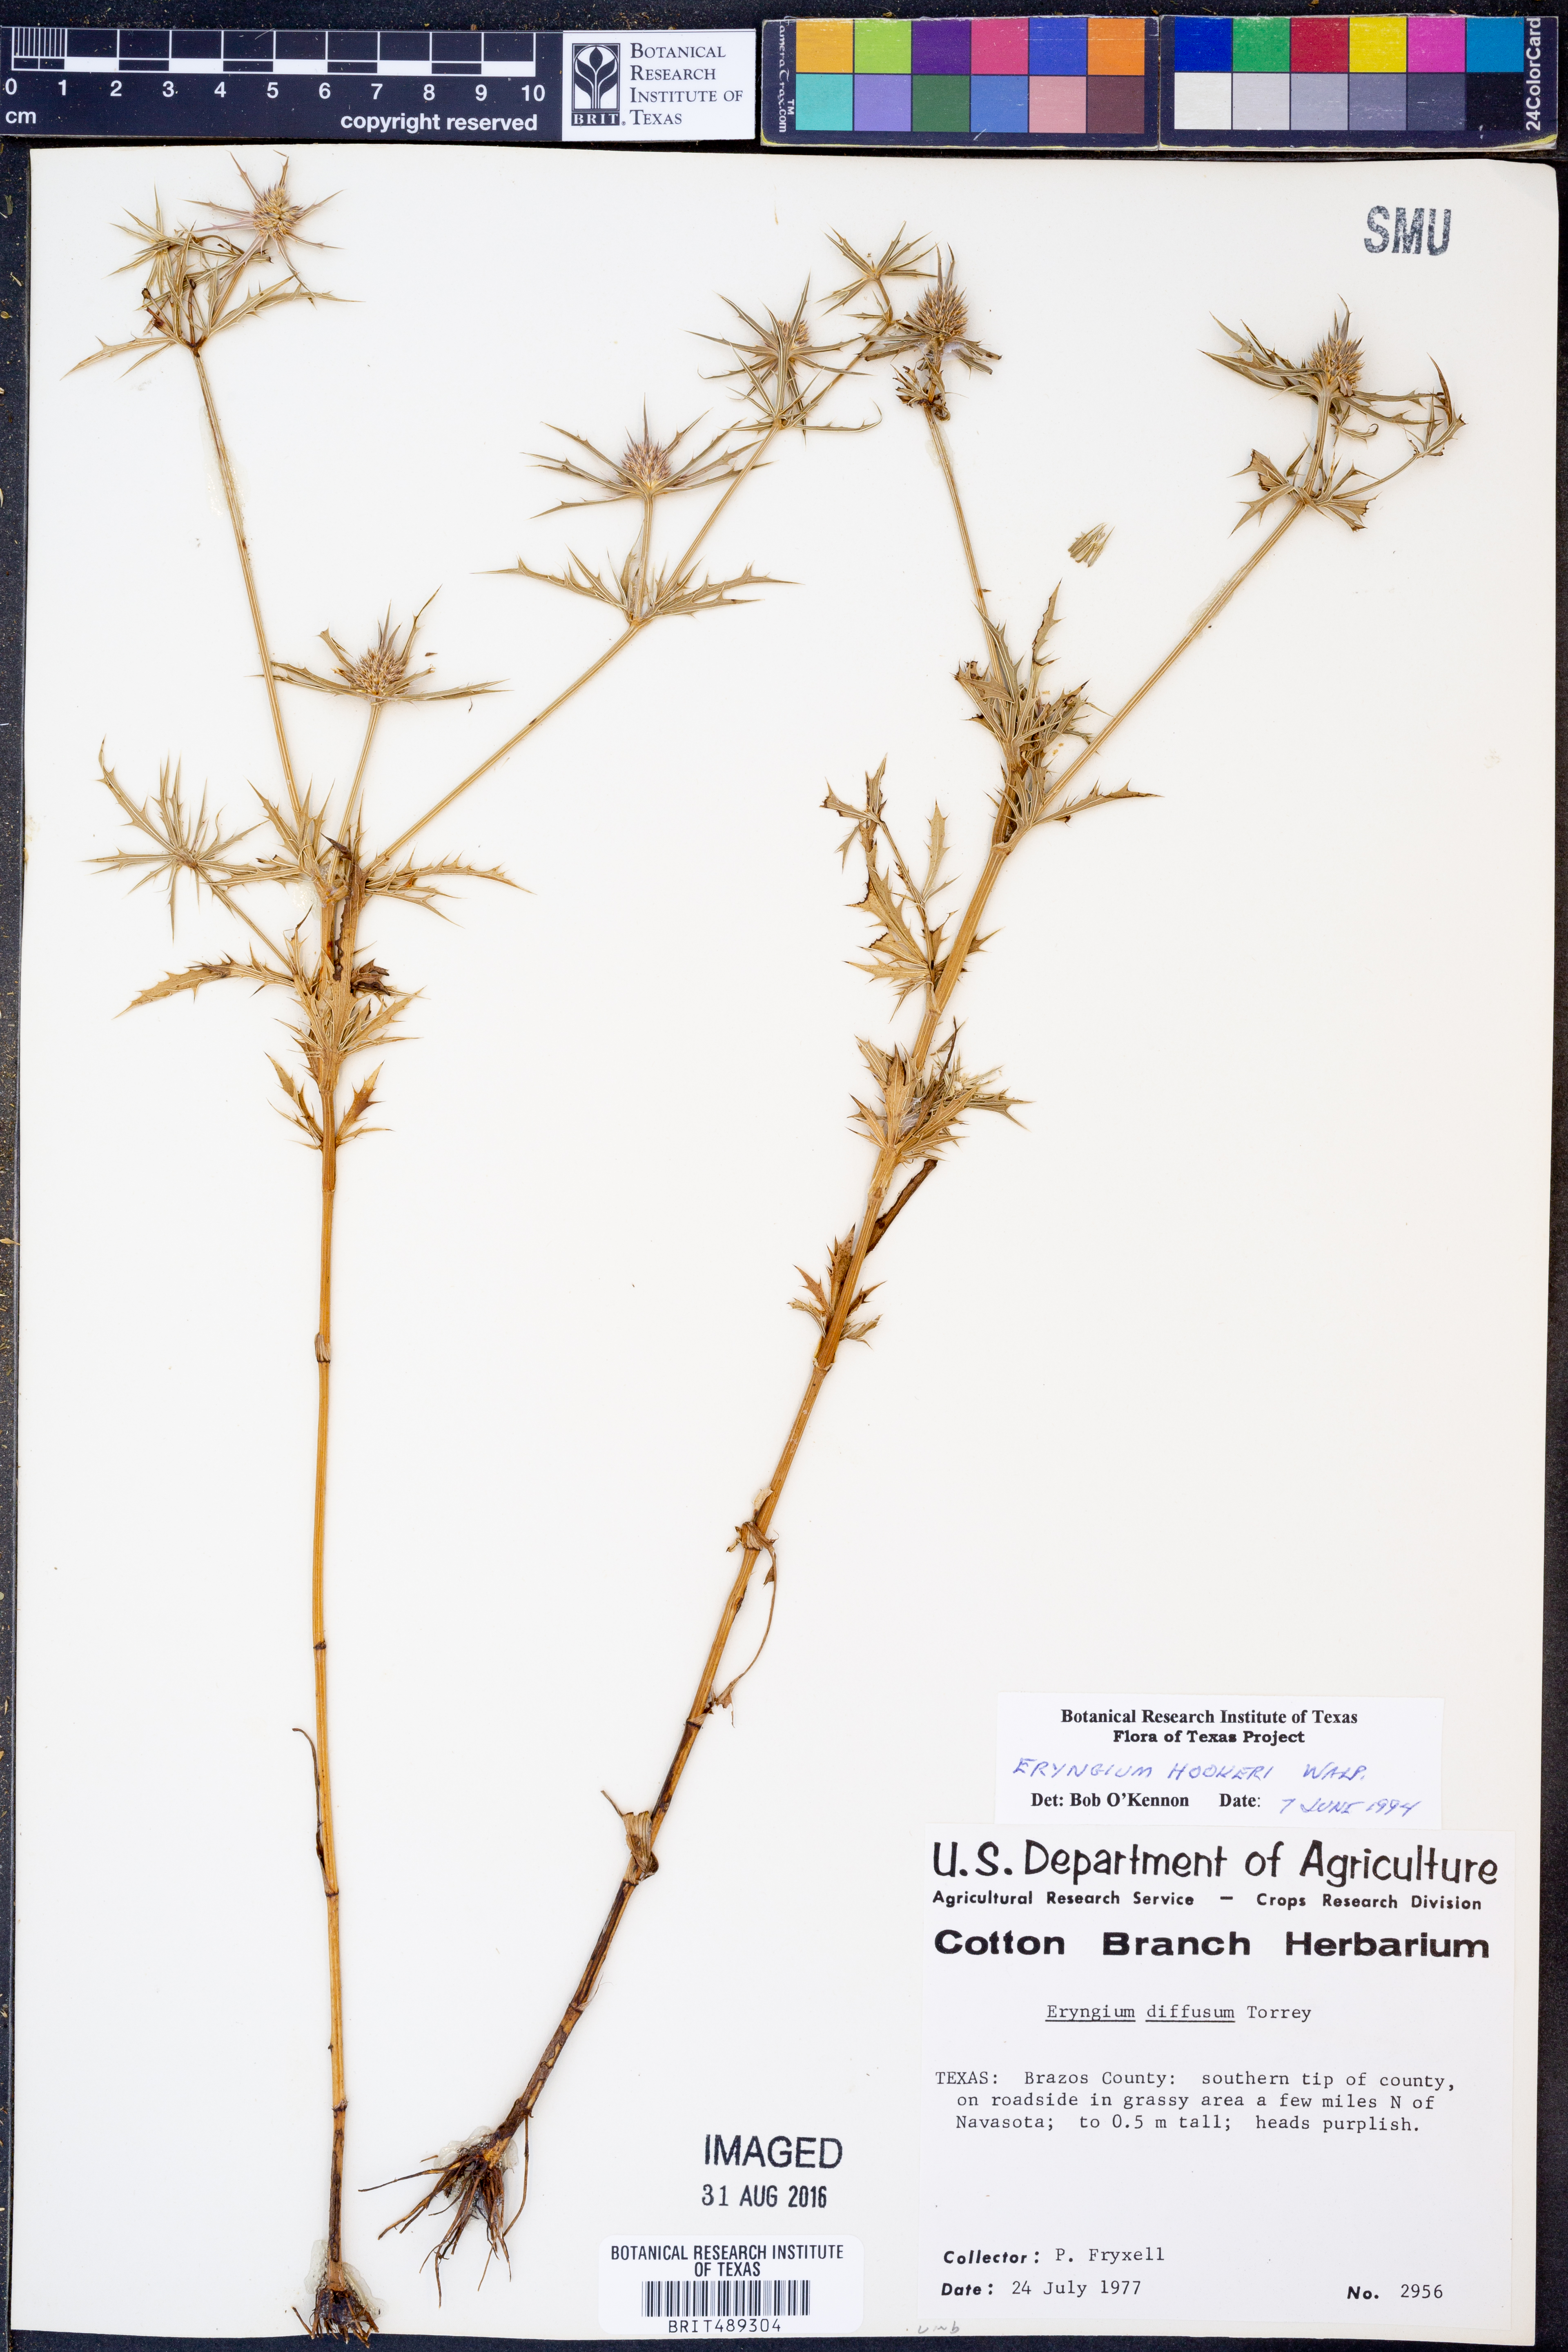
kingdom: Plantae
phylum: Tracheophyta
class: Magnoliopsida
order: Apiales
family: Apiaceae
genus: Eryngium
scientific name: Eryngium hookeri
